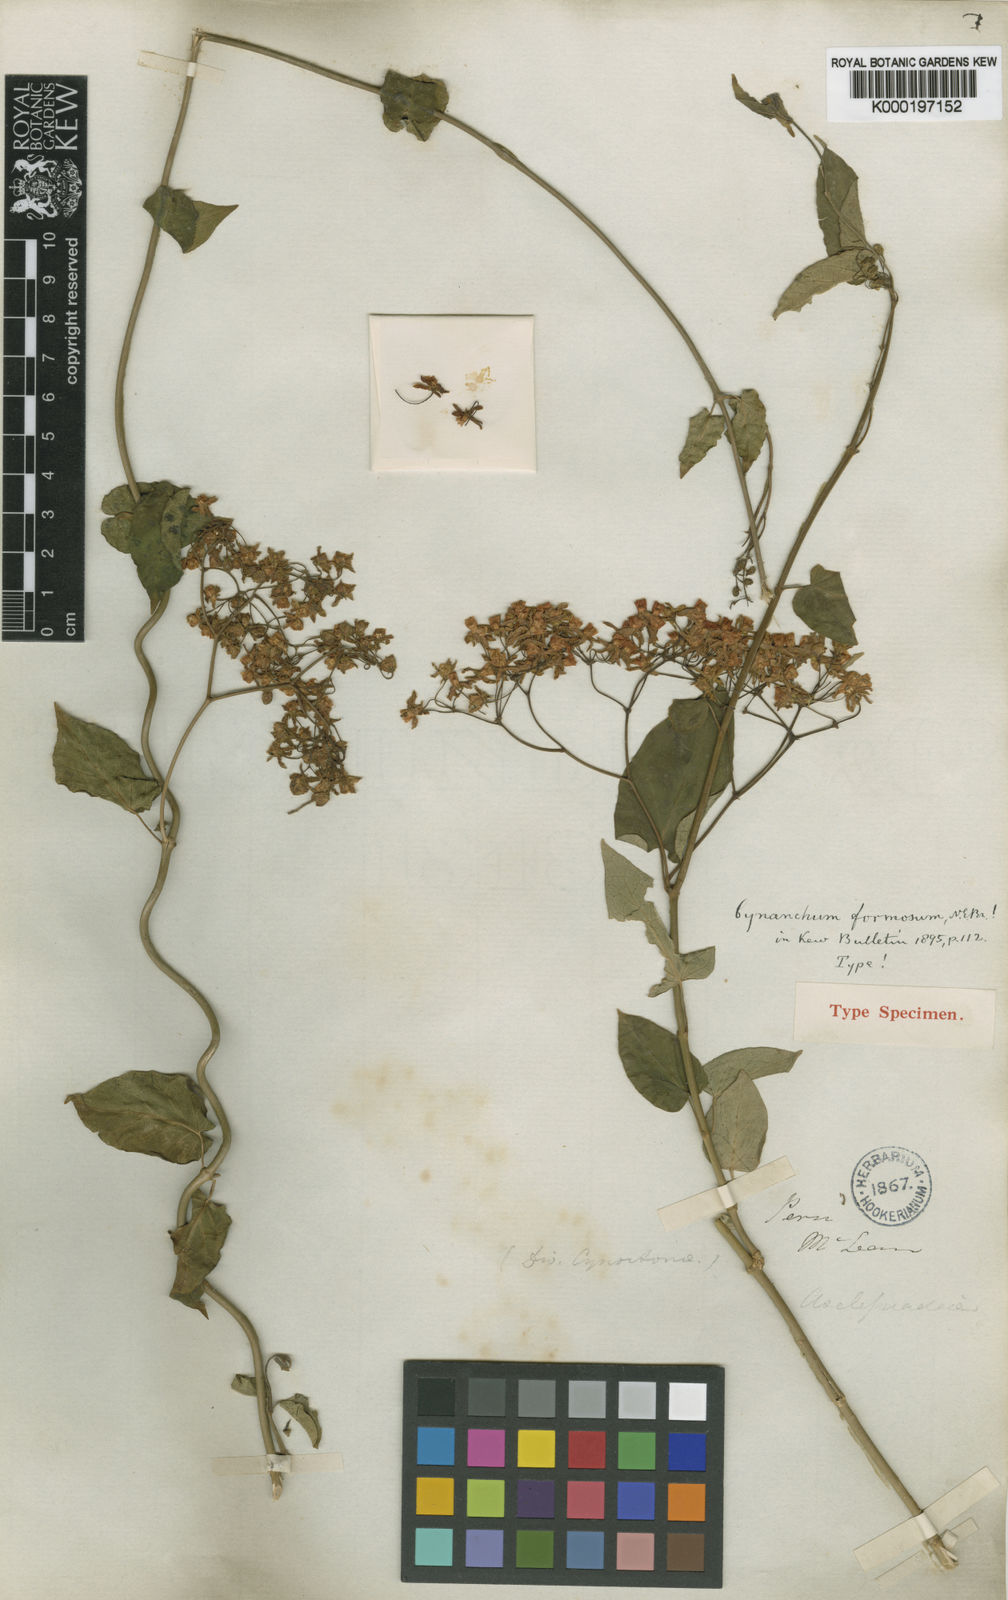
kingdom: Plantae
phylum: Tracheophyta
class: Magnoliopsida
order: Gentianales
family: Apocynaceae
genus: Jobinia
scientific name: Jobinia formosa
